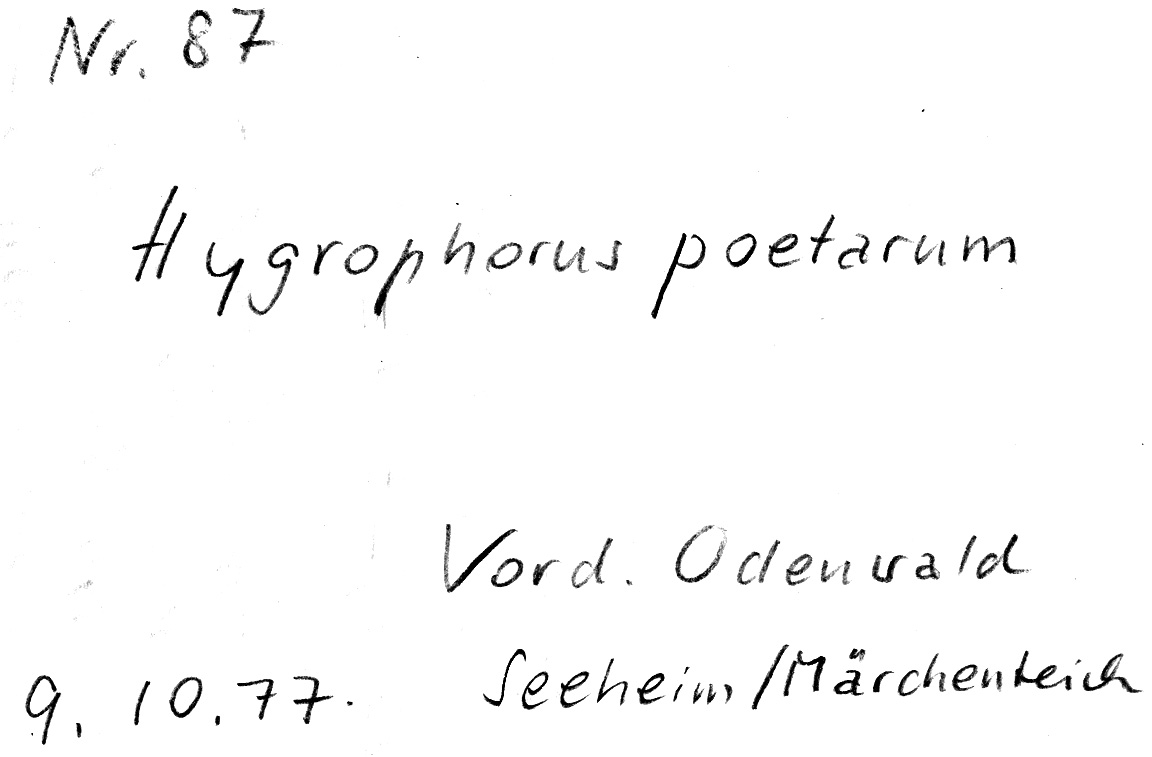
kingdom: Fungi
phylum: Basidiomycota
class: Agaricomycetes
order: Agaricales
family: Hygrophoraceae
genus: Hygrophorus
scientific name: Hygrophorus poetarum
